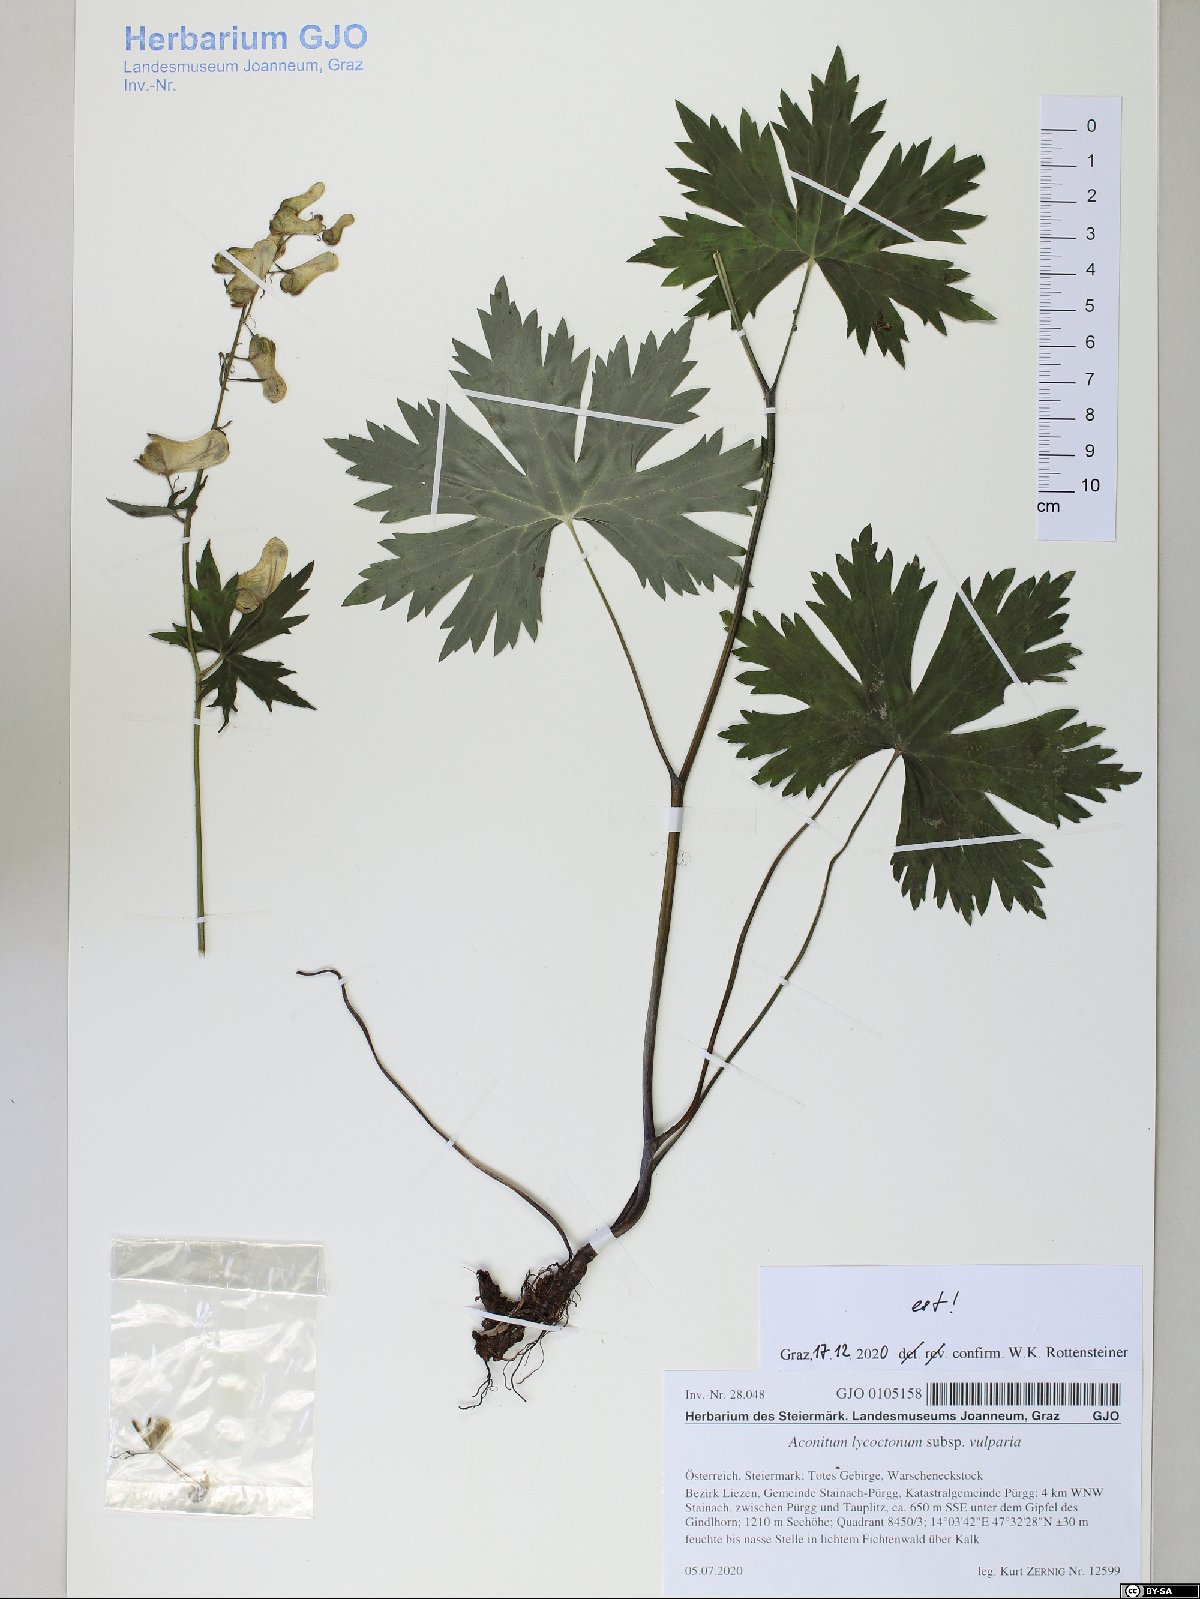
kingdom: Plantae
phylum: Tracheophyta
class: Magnoliopsida
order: Ranunculales
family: Ranunculaceae
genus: Aconitum
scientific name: Aconitum lycoctonum
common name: Wolf's-bane
